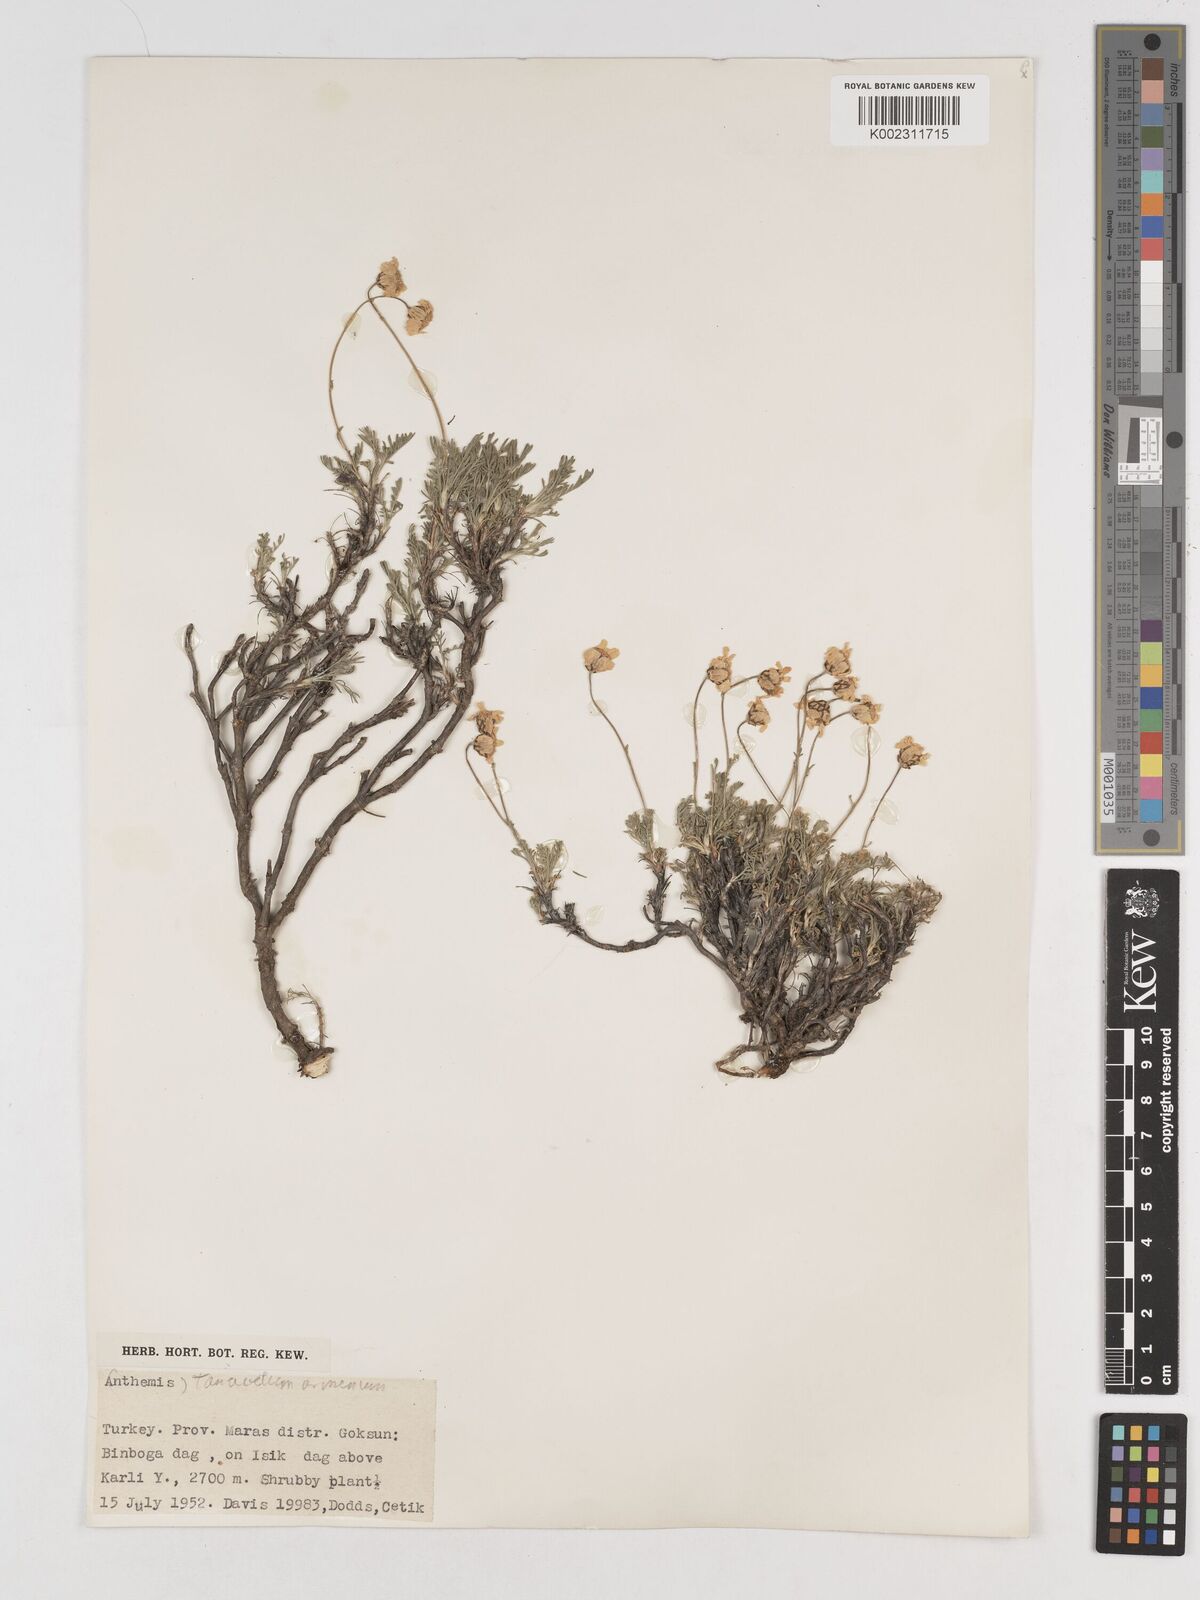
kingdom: Plantae
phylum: Tracheophyta
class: Magnoliopsida
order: Asterales
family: Asteraceae
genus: Tanacetum
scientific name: Tanacetum armenum
